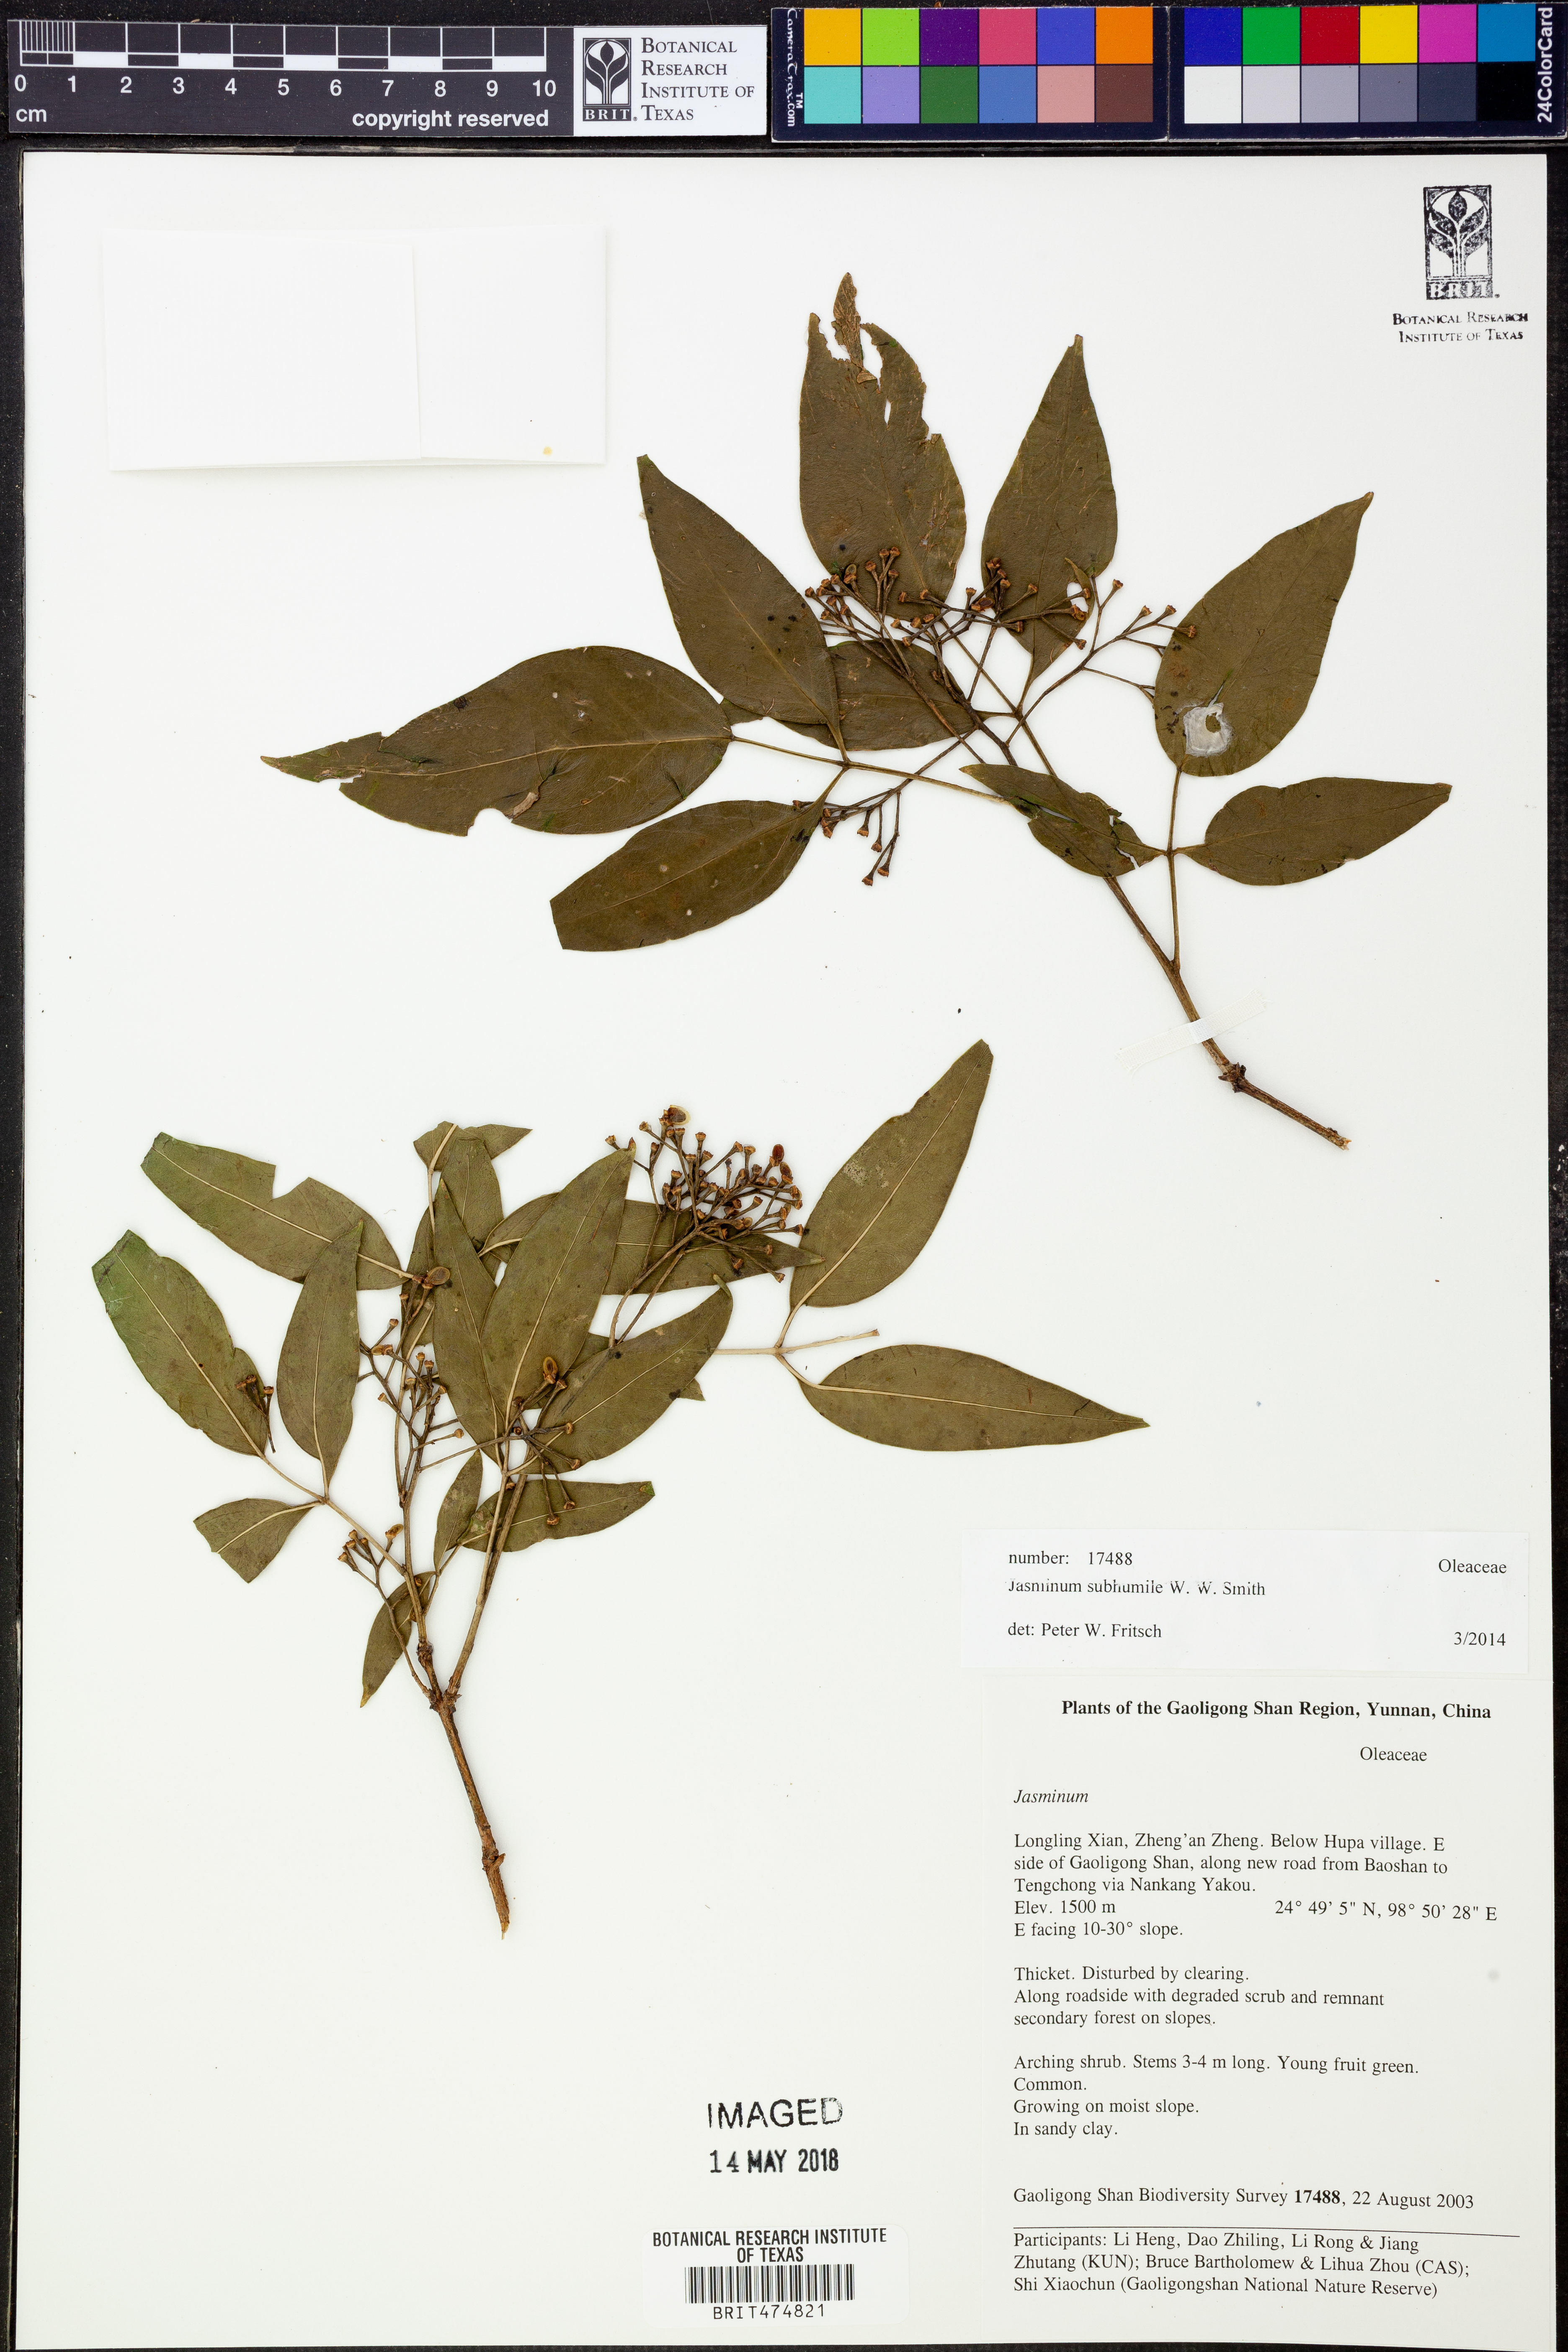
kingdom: Plantae
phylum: Tracheophyta
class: Magnoliopsida
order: Lamiales
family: Oleaceae
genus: Chrysojasminum
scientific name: Chrysojasminum subhumile
